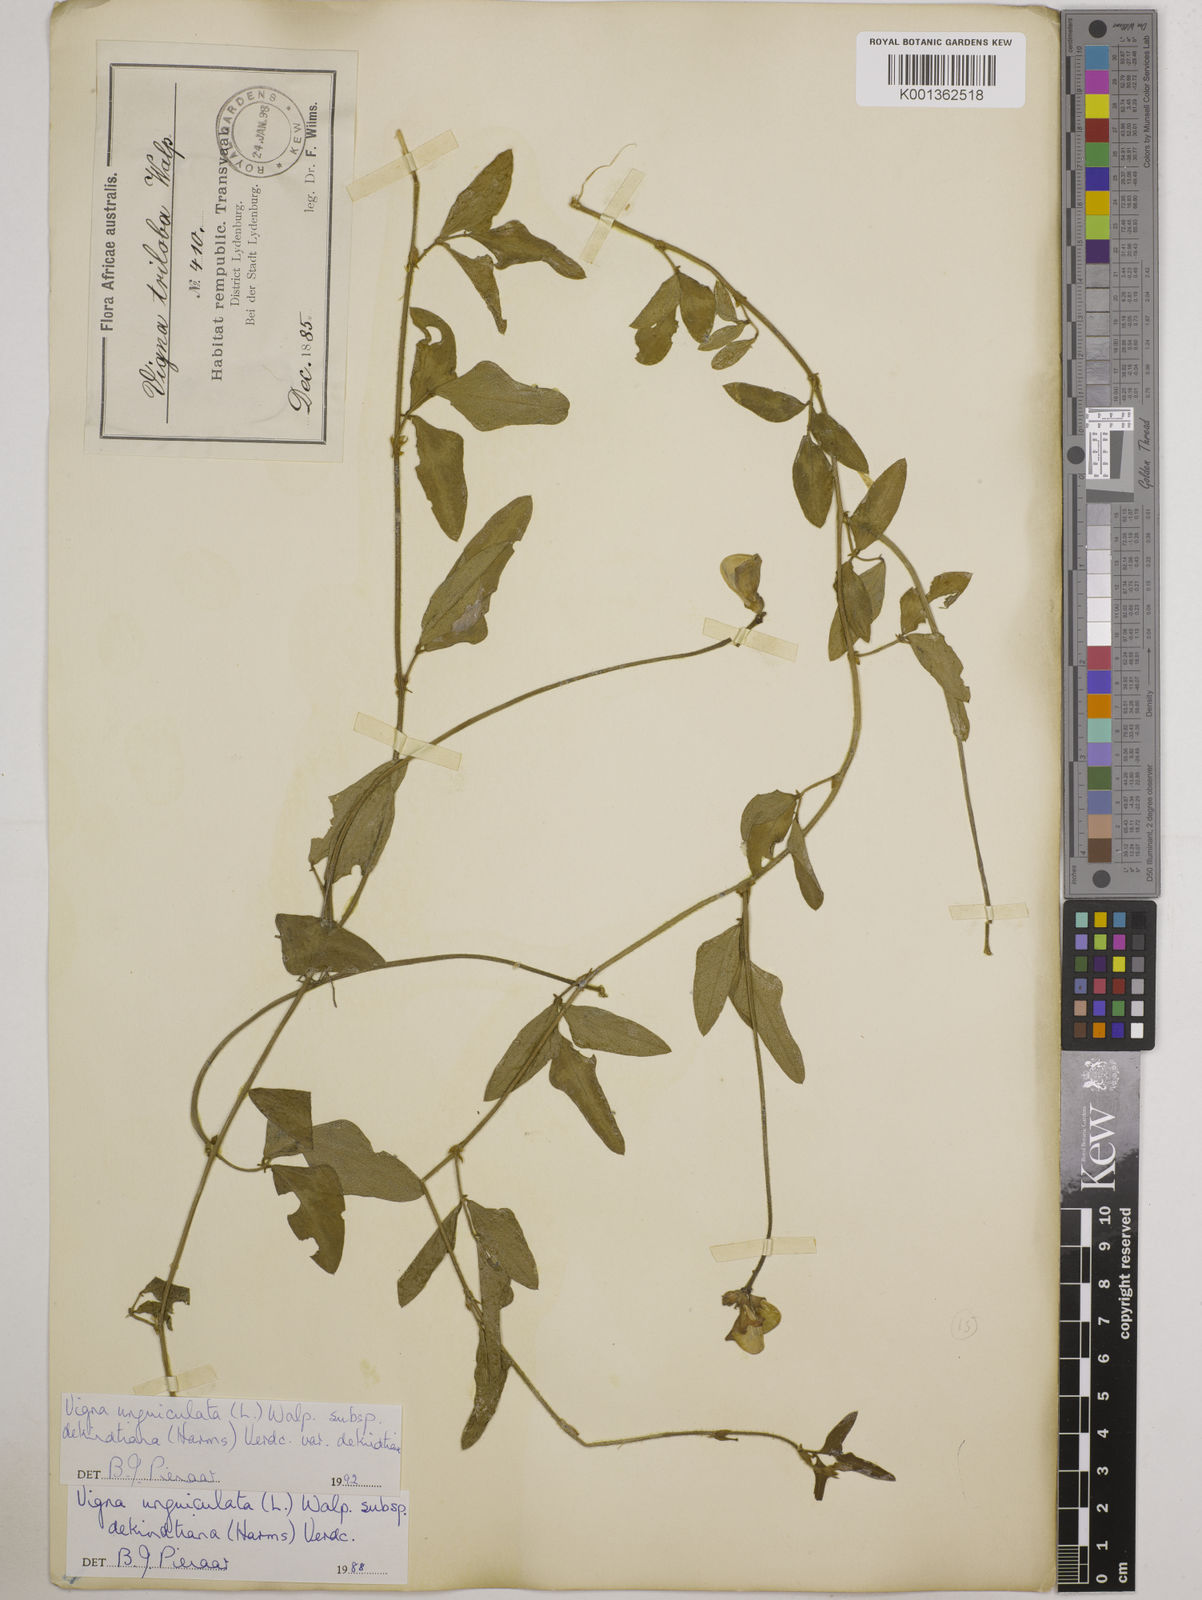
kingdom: Plantae
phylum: Tracheophyta
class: Magnoliopsida
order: Fabales
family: Fabaceae
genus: Vigna
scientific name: Vigna unguiculata
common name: Cowpea
